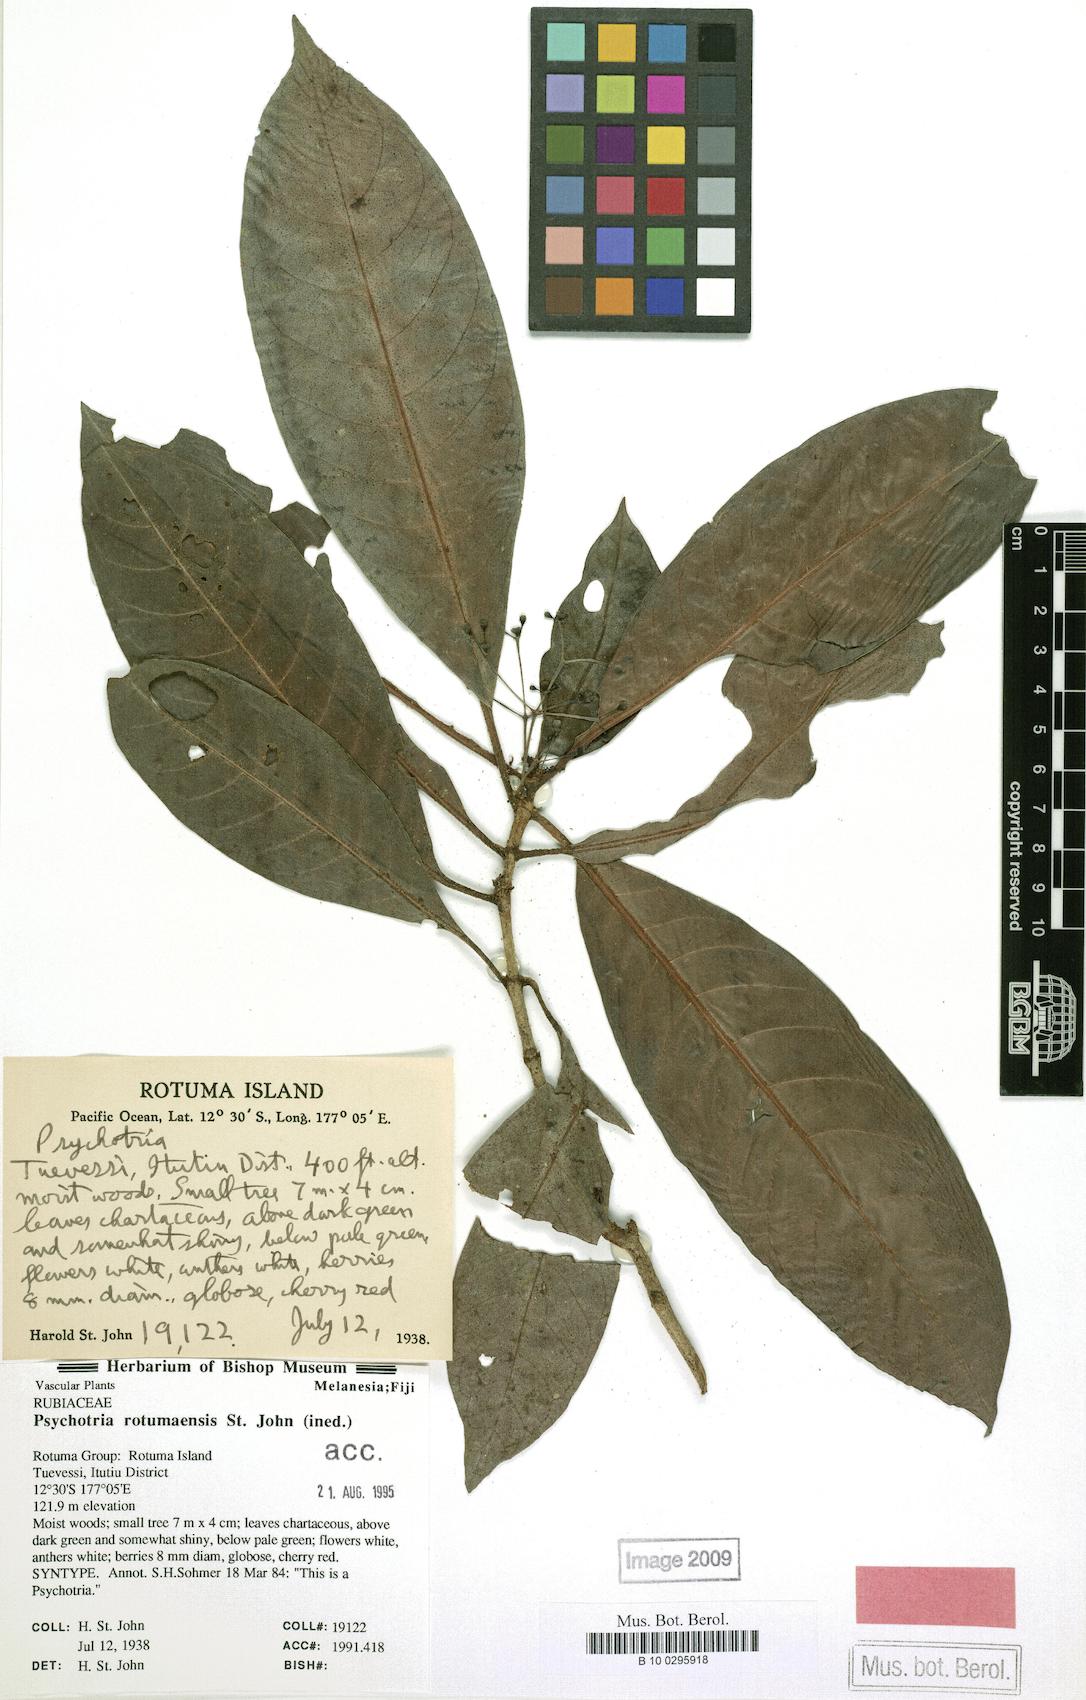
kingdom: Plantae
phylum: Tracheophyta
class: Magnoliopsida
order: Gentianales
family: Rubiaceae
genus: Psychotria
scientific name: Psychotria
